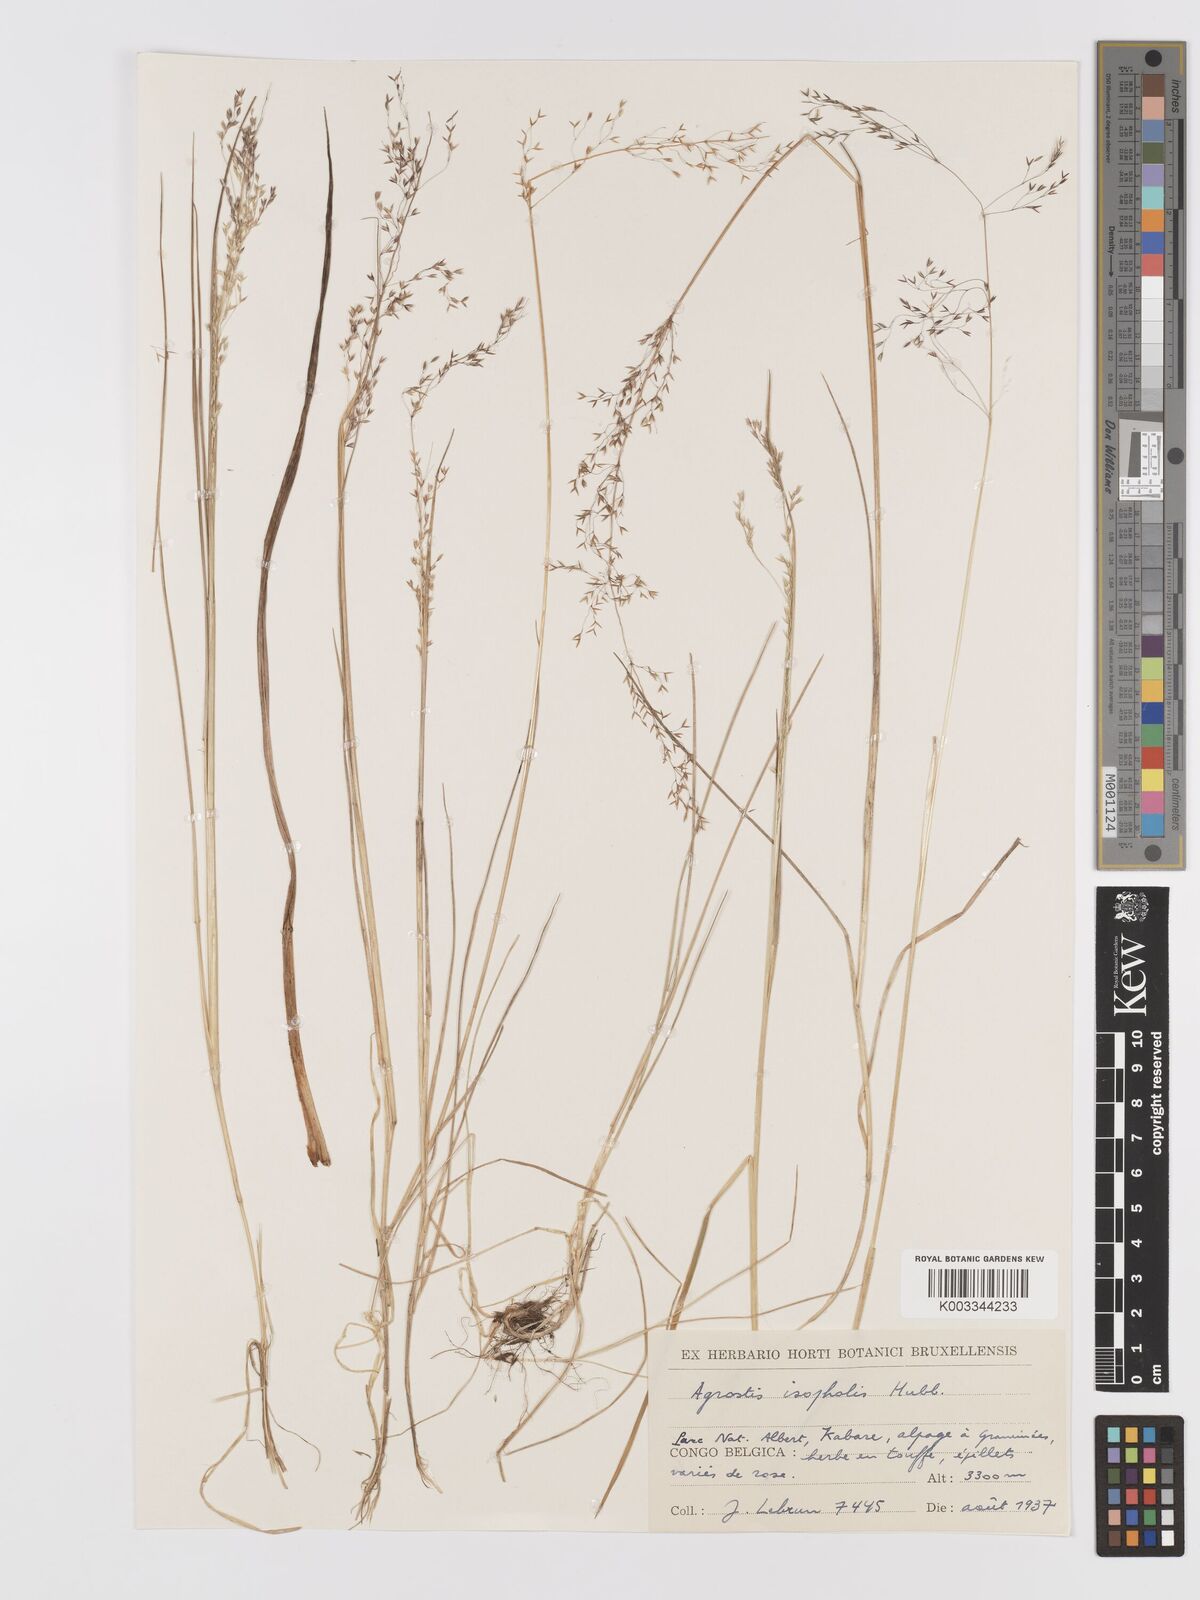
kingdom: Plantae
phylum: Tracheophyta
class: Liliopsida
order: Poales
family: Poaceae
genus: Agrostis
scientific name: Agrostis isopholis
